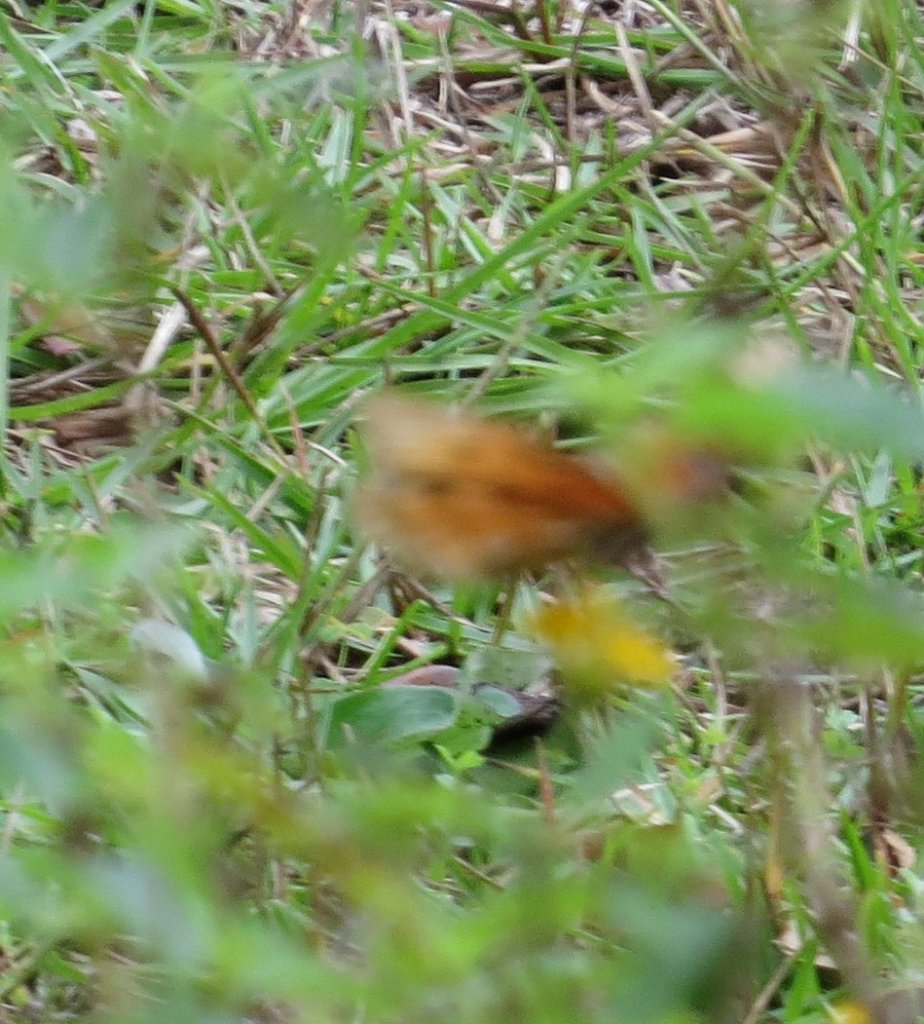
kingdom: Animalia
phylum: Arthropoda
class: Insecta
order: Lepidoptera
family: Nymphalidae
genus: Dione
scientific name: Dione vanillae
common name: Gulf Fritillary
